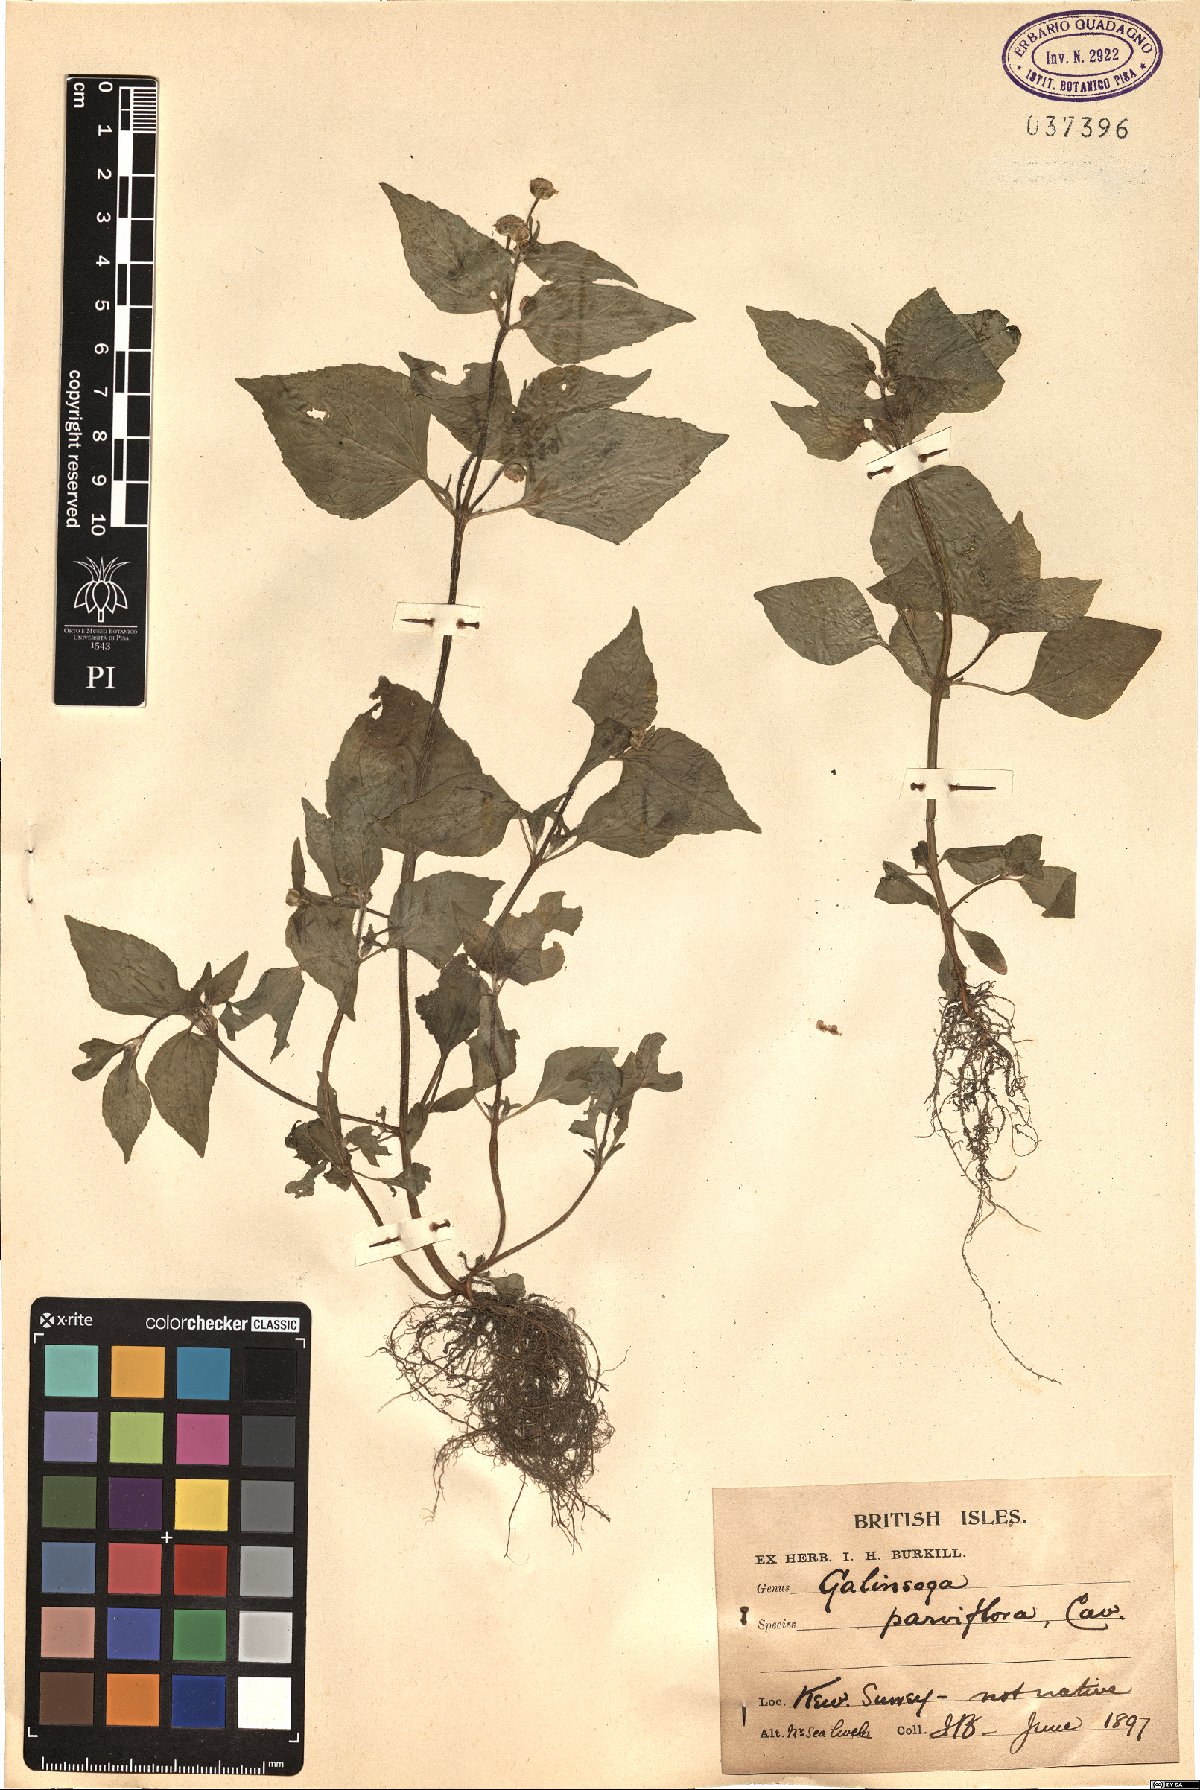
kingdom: Plantae
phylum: Tracheophyta
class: Magnoliopsida
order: Asterales
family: Asteraceae
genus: Galinsoga
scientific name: Galinsoga parviflora
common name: Gallant soldier
